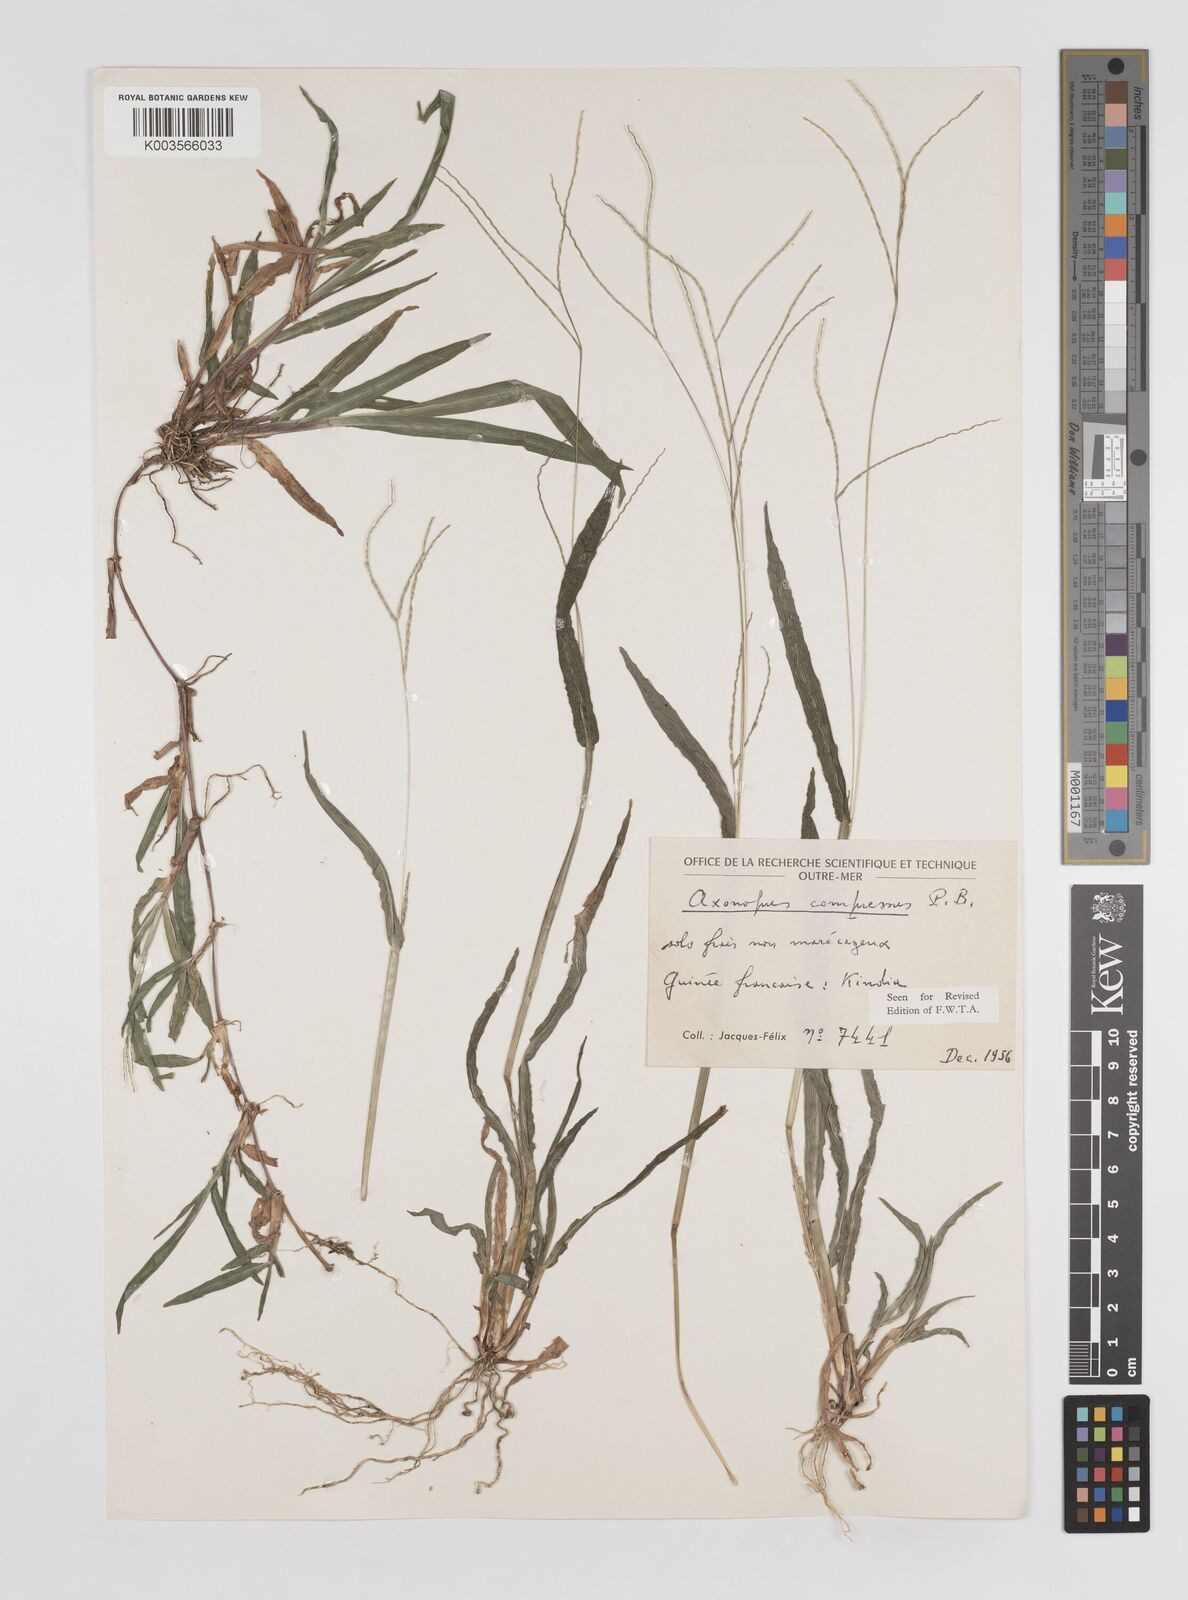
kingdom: Plantae
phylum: Tracheophyta
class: Liliopsida
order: Poales
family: Poaceae
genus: Axonopus
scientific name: Axonopus compressus
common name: American carpet grass
